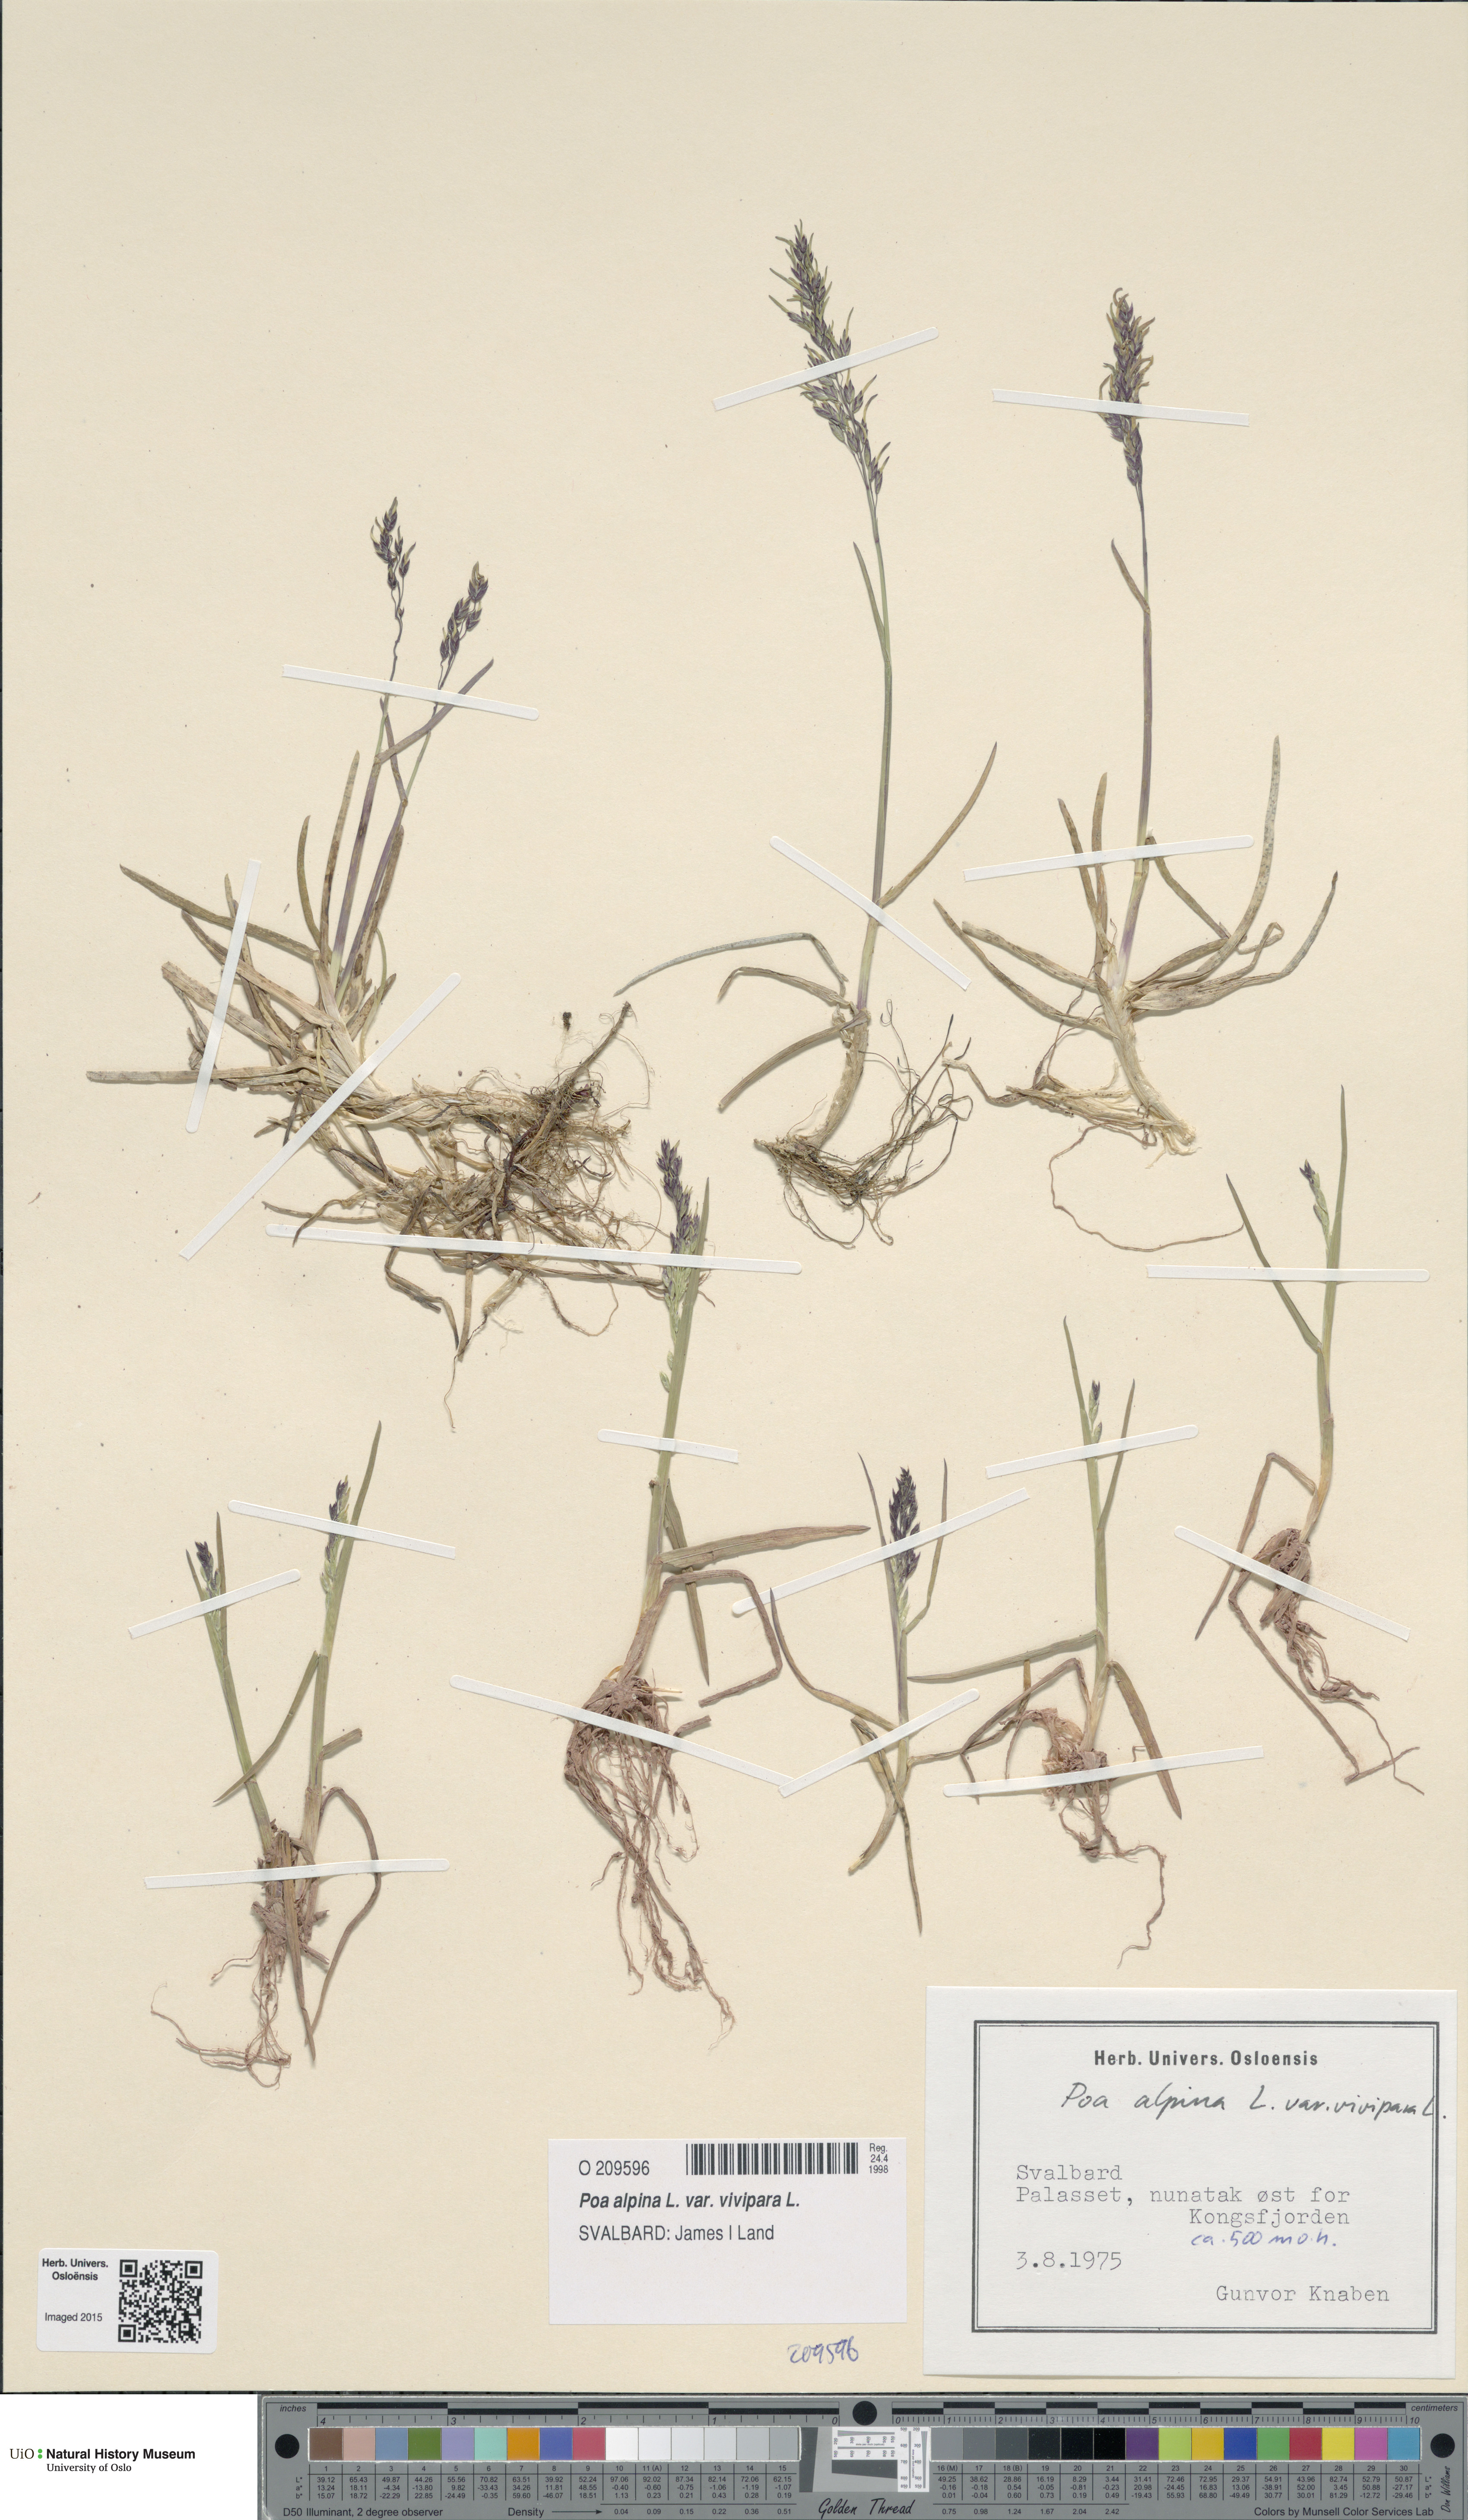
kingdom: Plantae
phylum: Tracheophyta
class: Liliopsida
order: Poales
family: Poaceae
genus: Poa
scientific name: Poa alpina
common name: Alpine bluegrass
